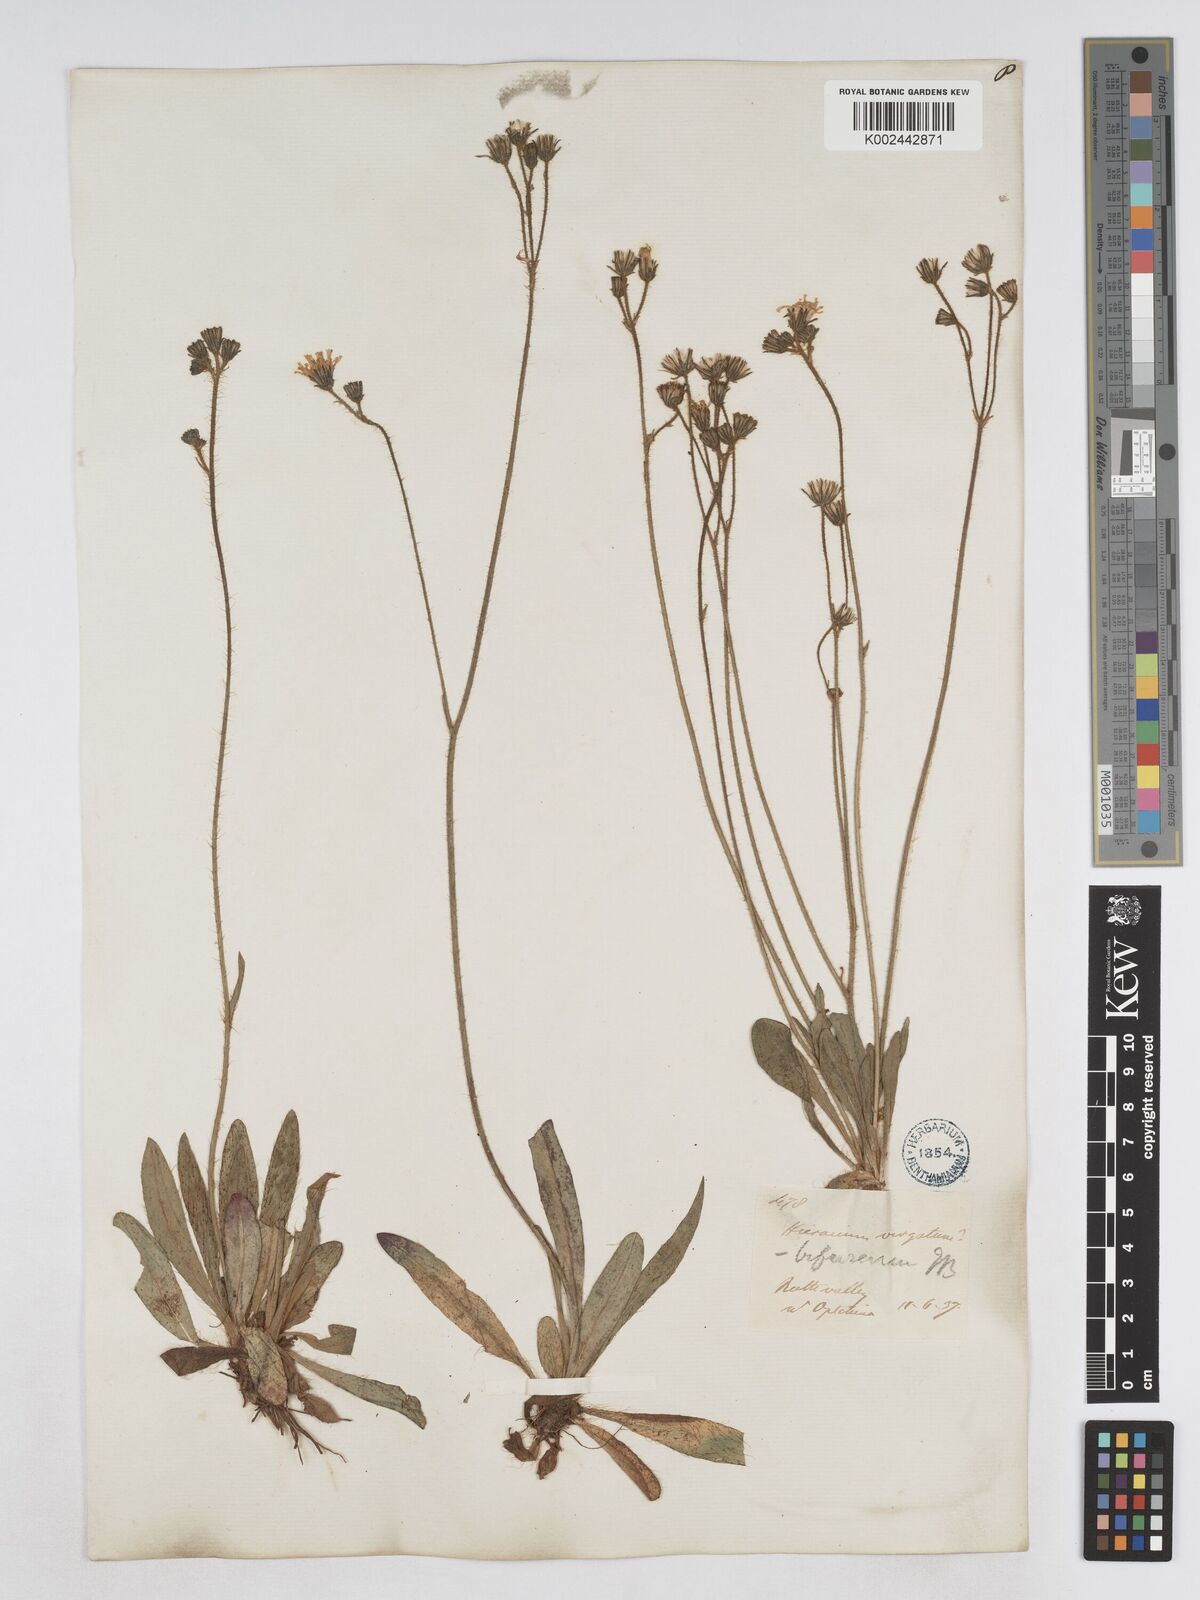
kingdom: Plantae
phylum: Tracheophyta
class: Magnoliopsida
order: Asterales
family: Asteraceae
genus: Pilosella
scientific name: Pilosella bifurca
